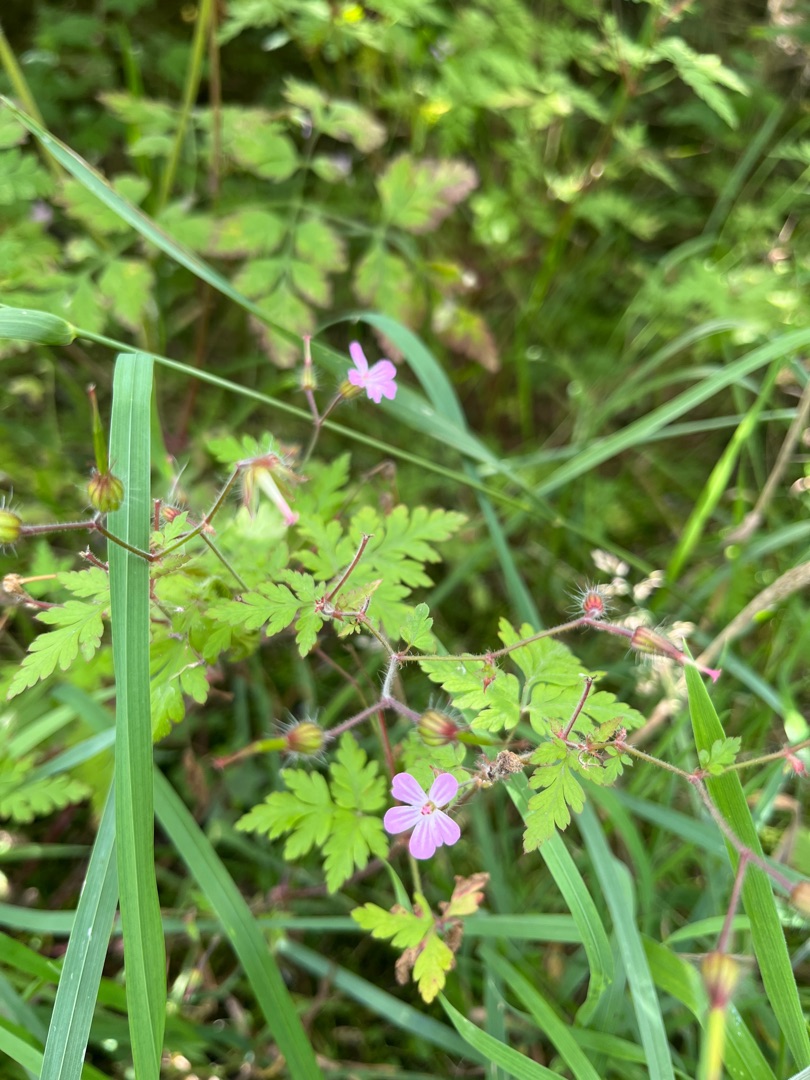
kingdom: Plantae
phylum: Tracheophyta
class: Magnoliopsida
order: Geraniales
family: Geraniaceae
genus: Geranium
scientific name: Geranium robertianum
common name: Stinkende storkenæb
